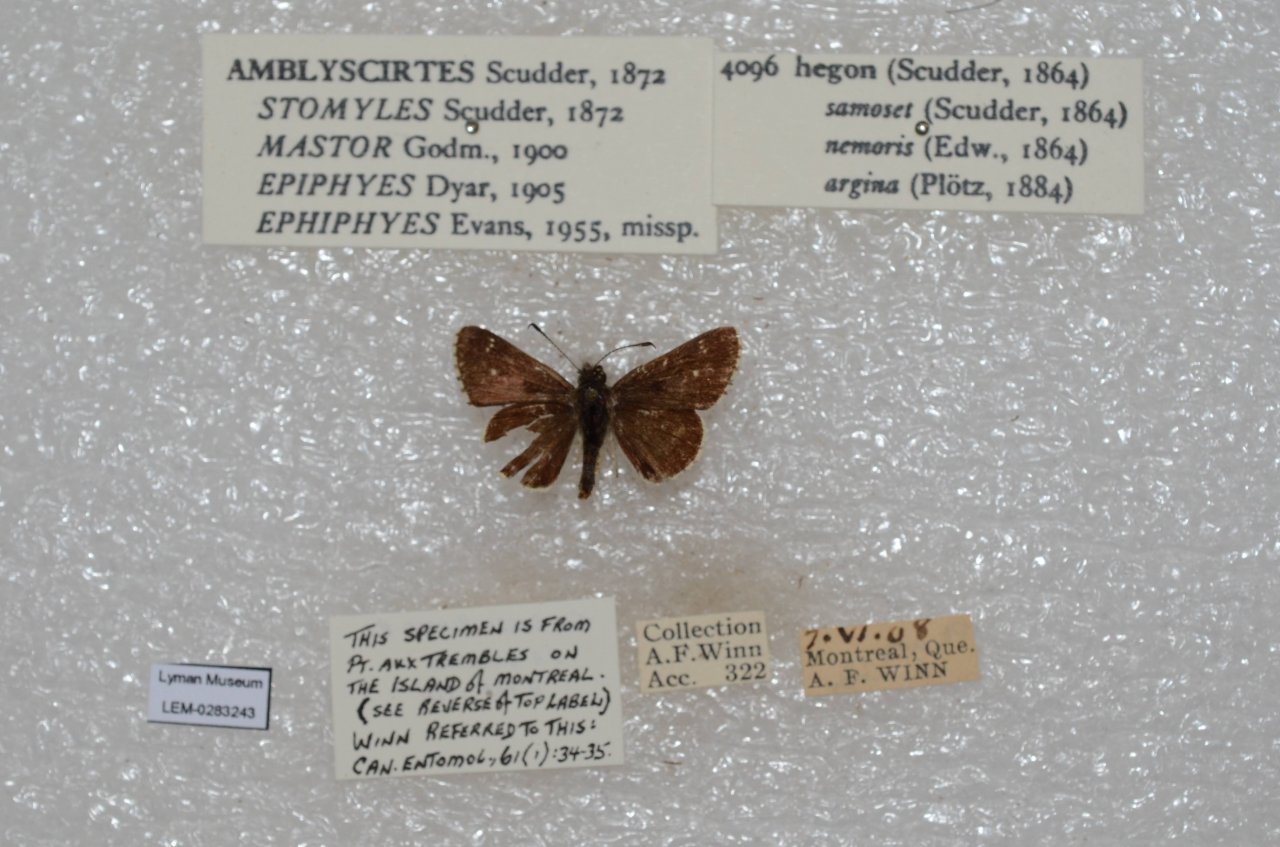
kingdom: Animalia
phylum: Arthropoda
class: Insecta
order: Lepidoptera
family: Hesperiidae
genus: Mastor
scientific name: Mastor hegon
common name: Pepper and Salt Skipper
